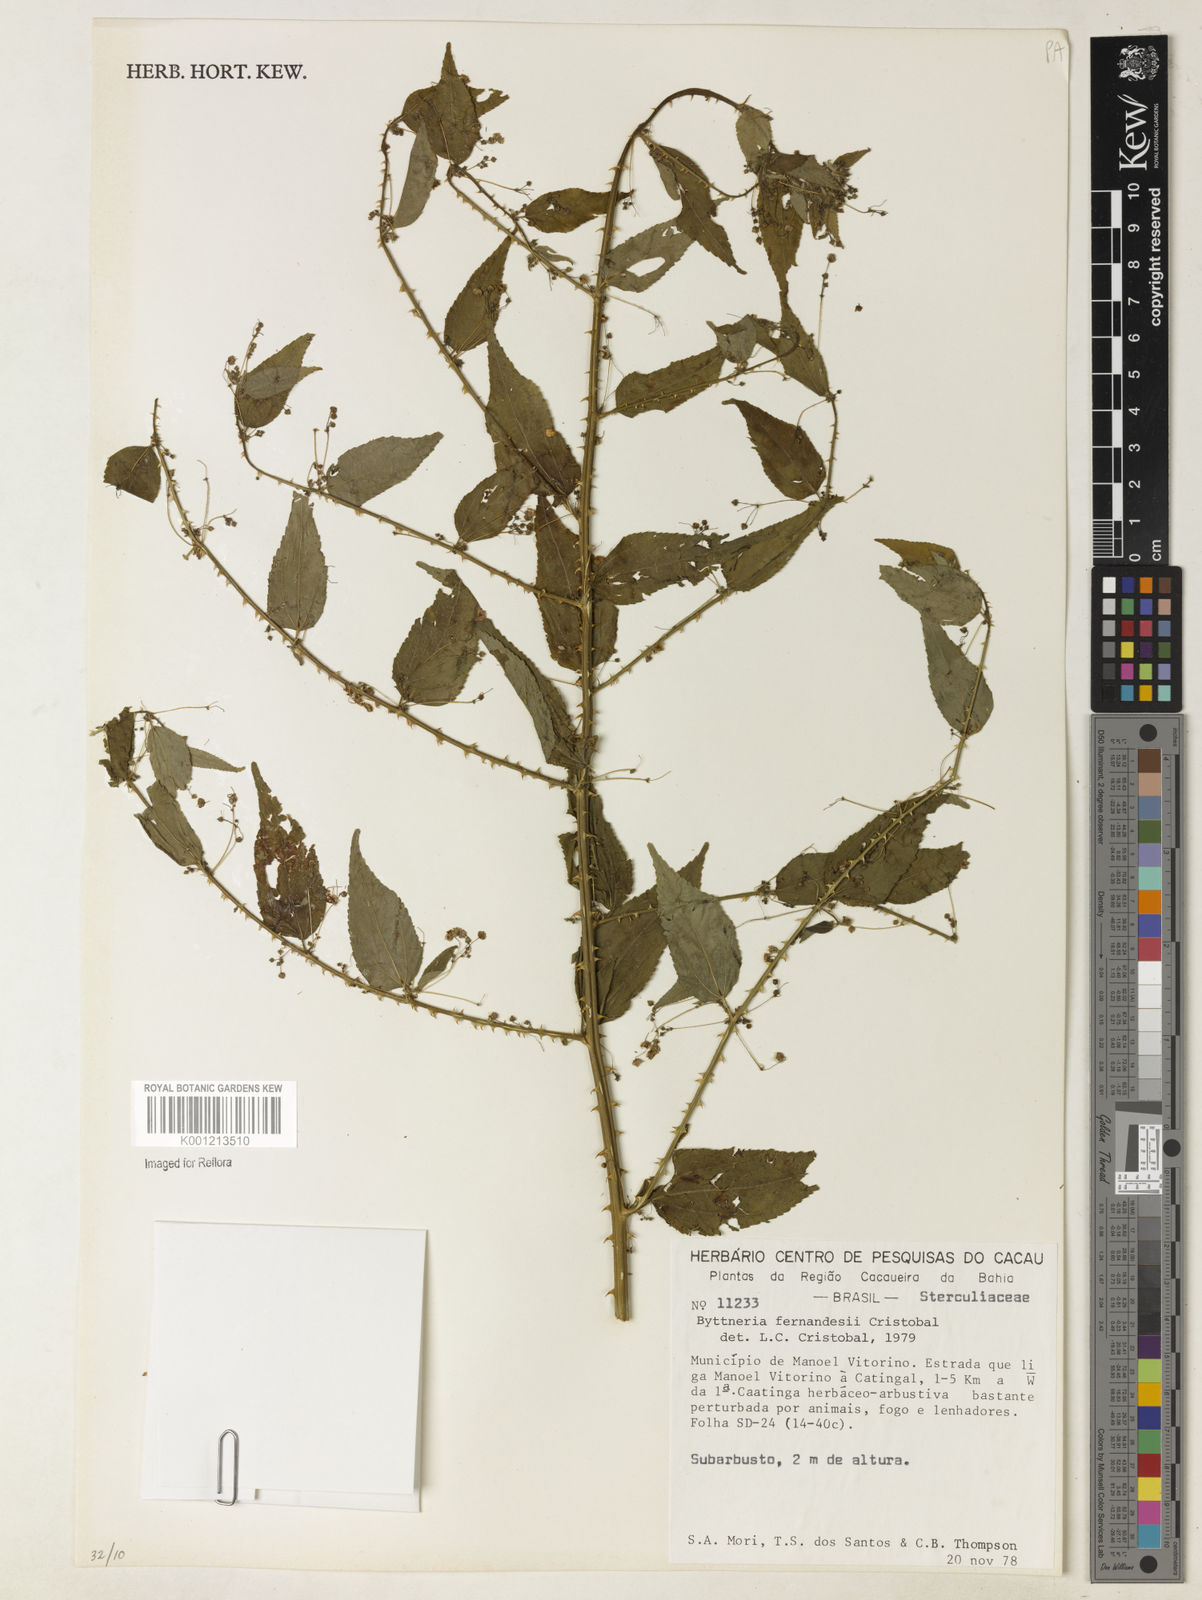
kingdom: Plantae
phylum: Tracheophyta
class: Magnoliopsida
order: Malvales
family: Malvaceae
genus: Byttneria
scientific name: Byttneria
